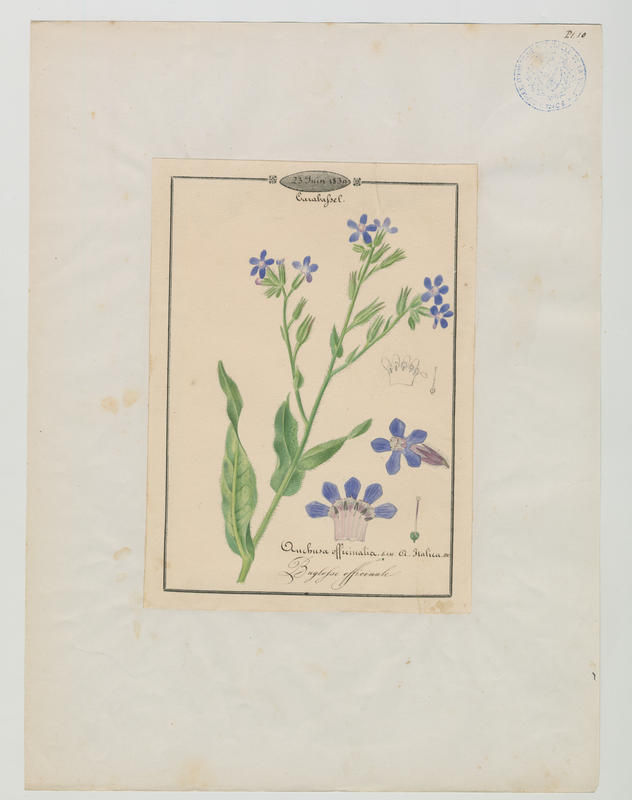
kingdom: Plantae
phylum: Tracheophyta
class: Magnoliopsida
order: Boraginales
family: Boraginaceae
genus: Anchusa
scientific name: Anchusa officinalis
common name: Alkanet
